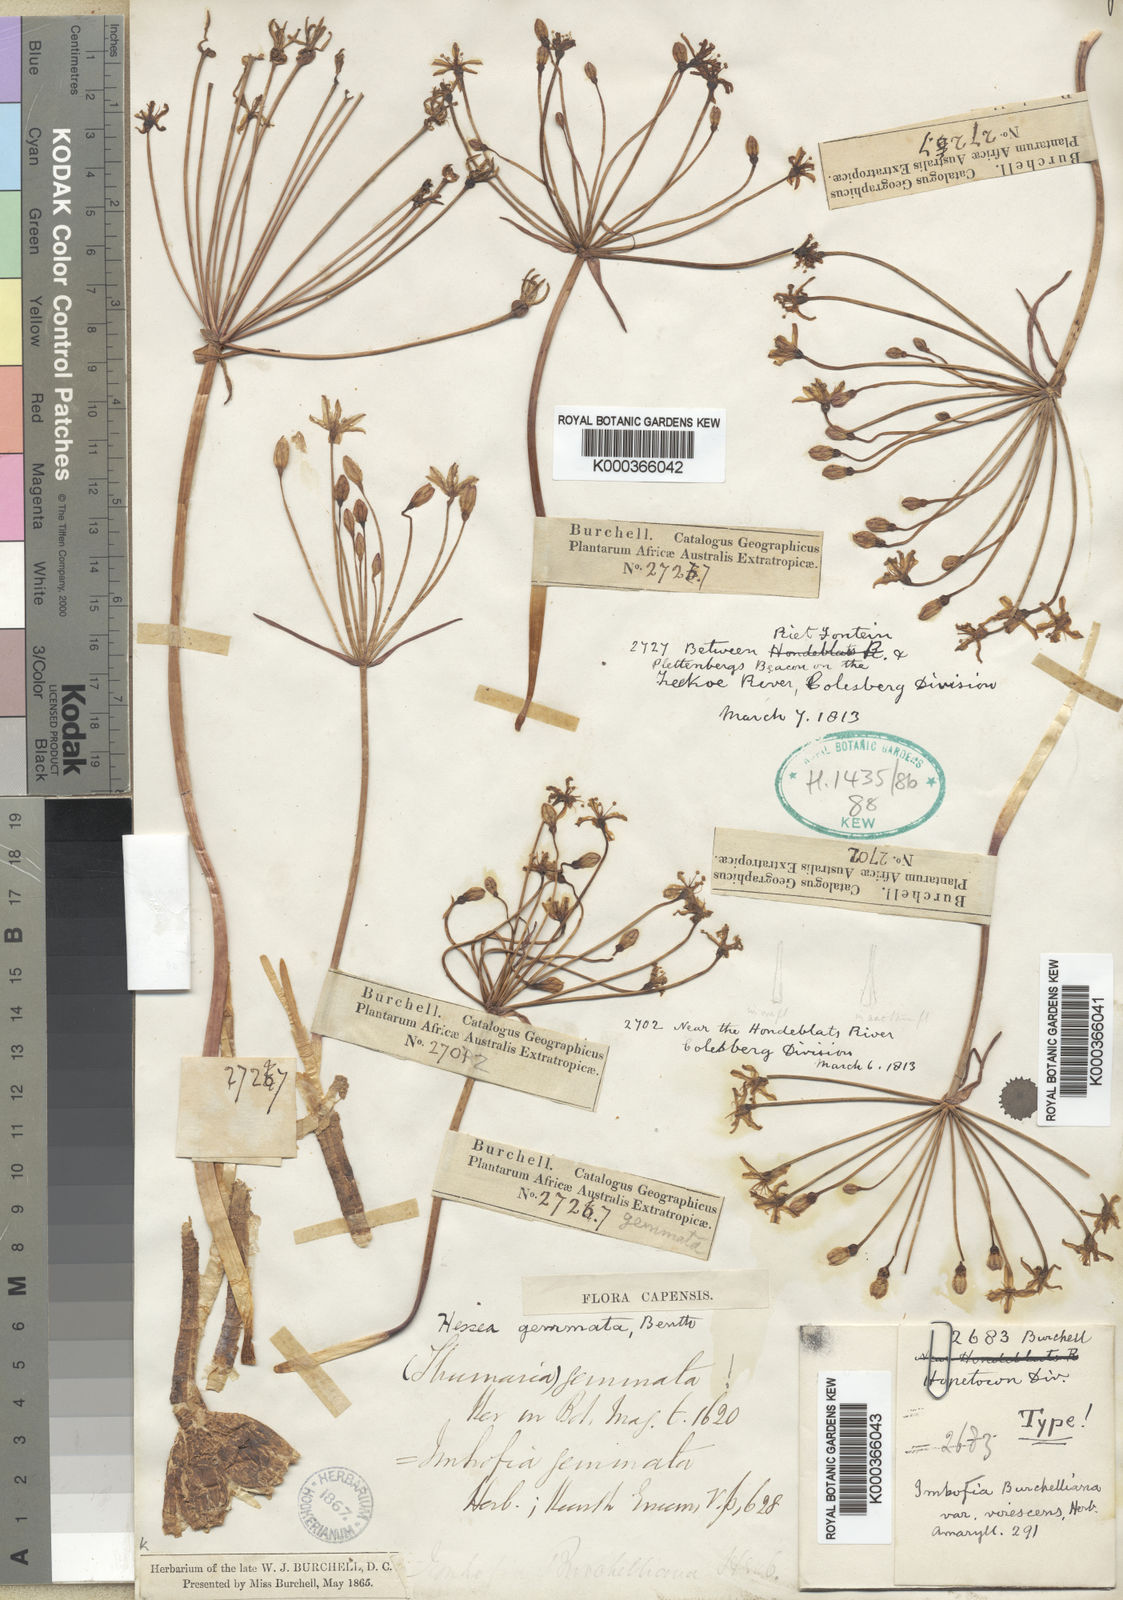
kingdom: Plantae
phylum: Tracheophyta
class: Liliopsida
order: Asparagales
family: Amaryllidaceae
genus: Strumaria
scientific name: Strumaria gemmata
